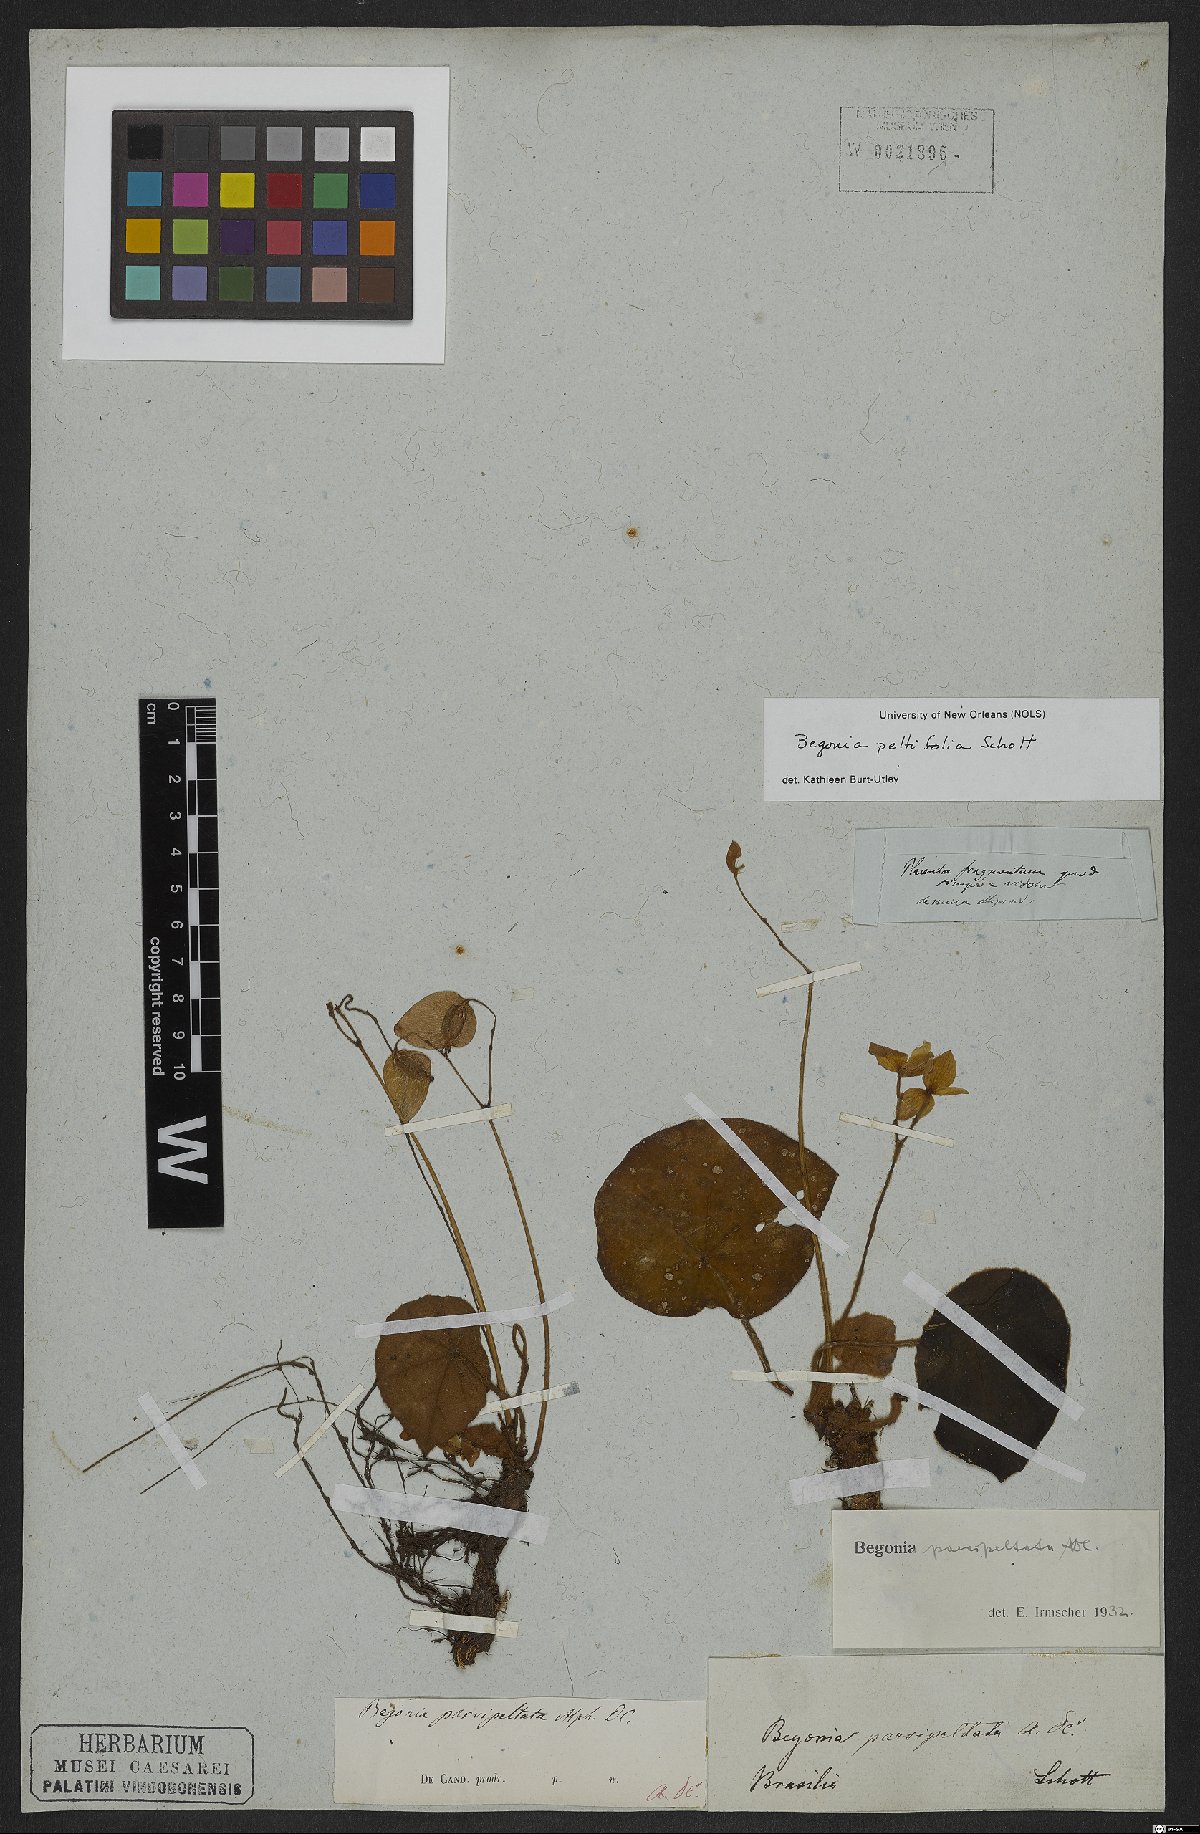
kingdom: Plantae
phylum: Tracheophyta
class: Magnoliopsida
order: Cucurbitales
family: Begoniaceae
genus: Begonia
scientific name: Begonia peltifolia
